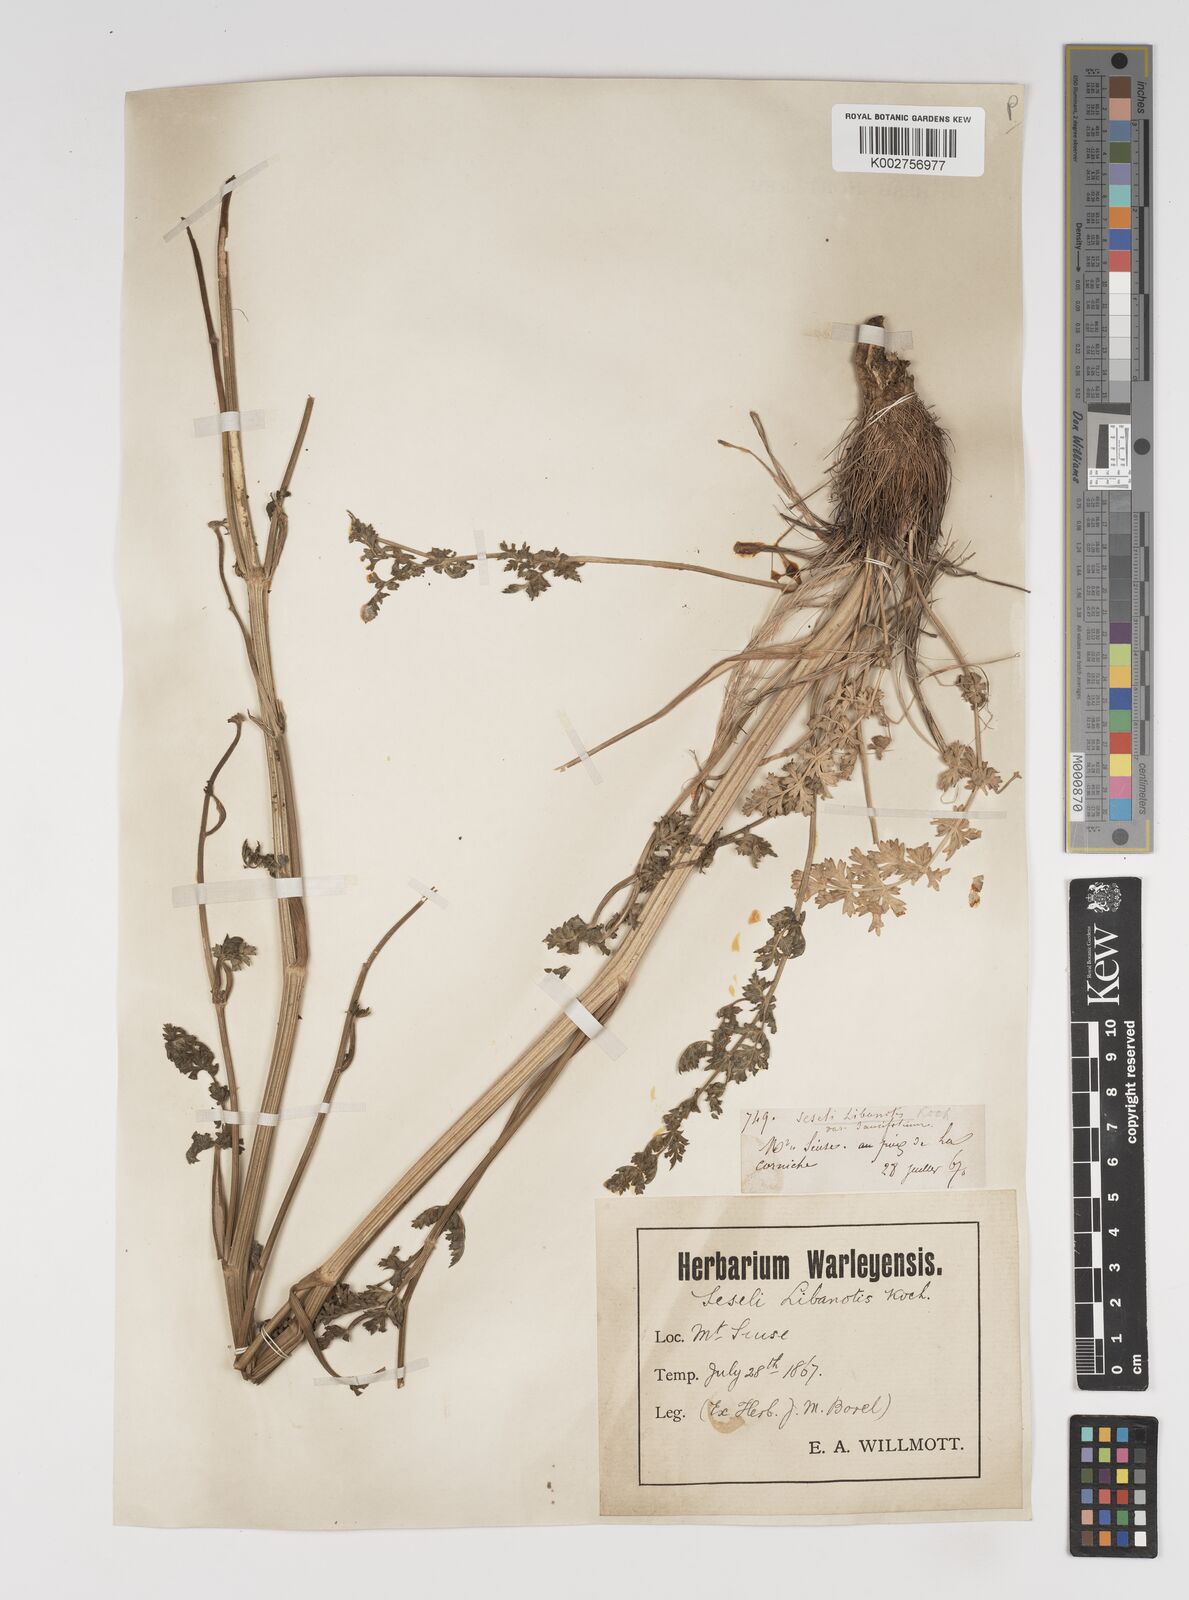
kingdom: Plantae
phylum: Tracheophyta
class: Magnoliopsida
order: Apiales
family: Apiaceae
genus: Seseli
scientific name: Seseli libanotis
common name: Mooncarrot
